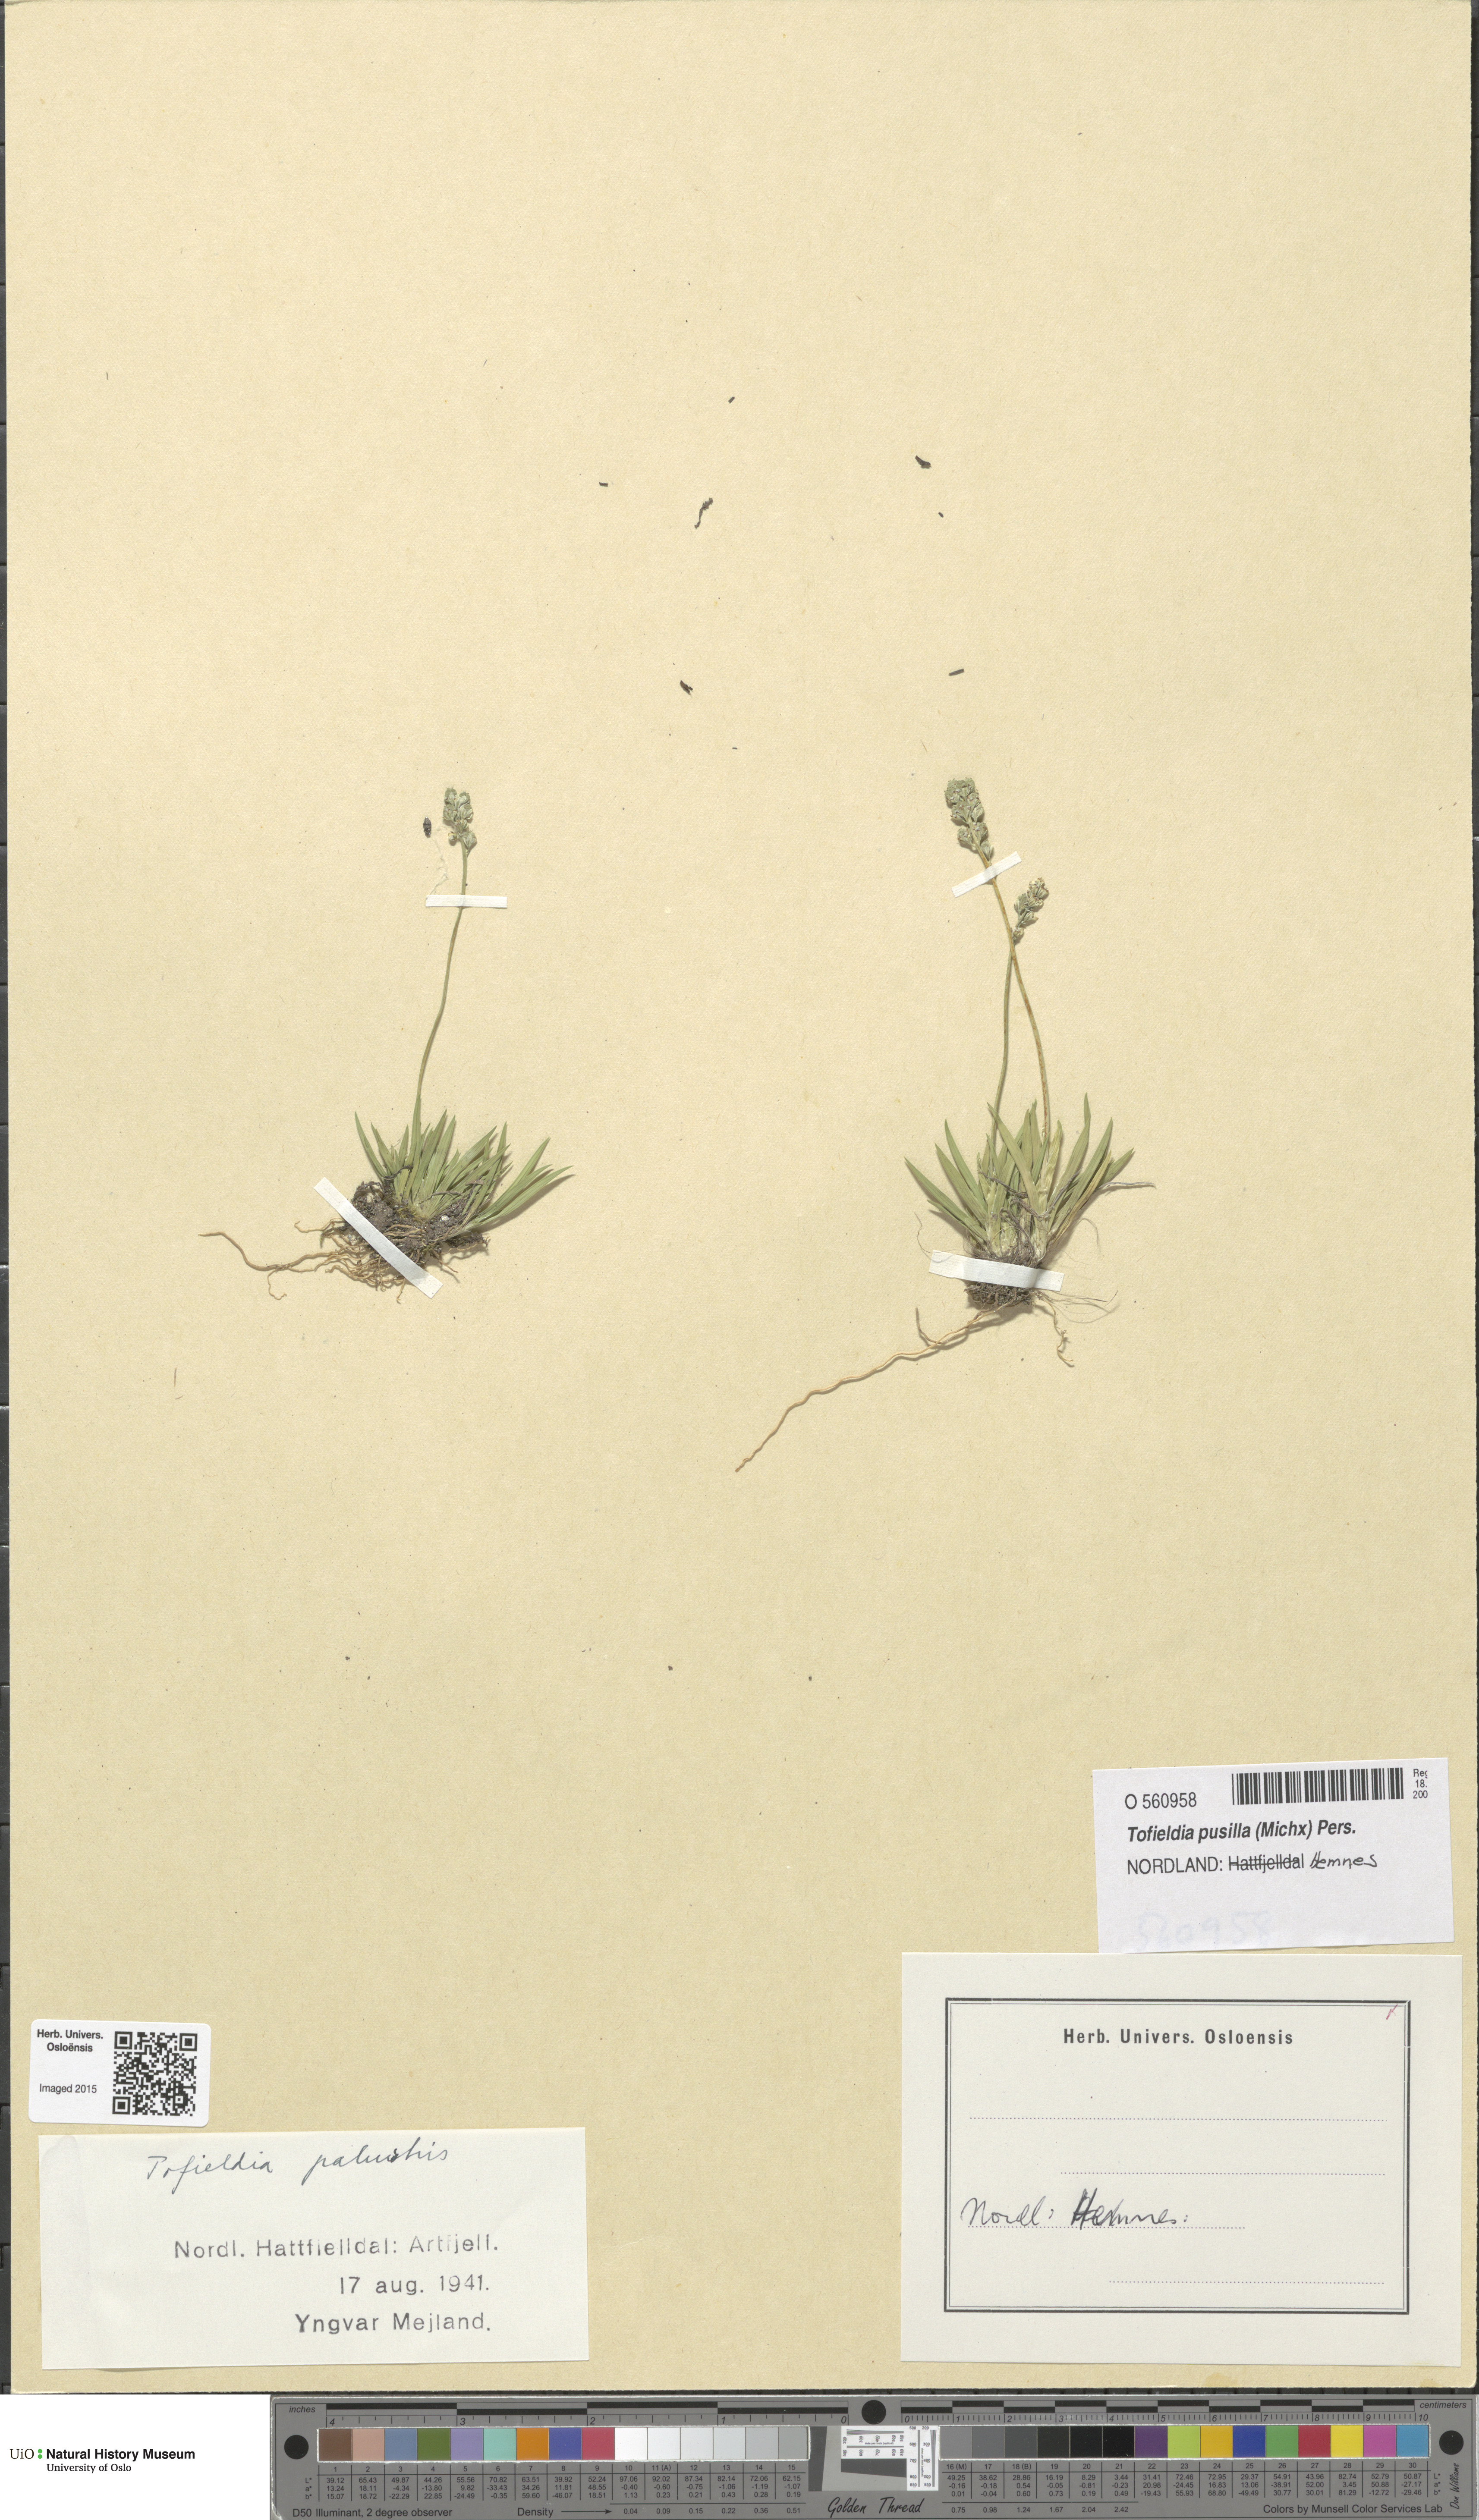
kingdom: Plantae
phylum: Tracheophyta
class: Liliopsida
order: Alismatales
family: Tofieldiaceae
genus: Tofieldia
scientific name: Tofieldia pusilla
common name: Scottish false asphodel
